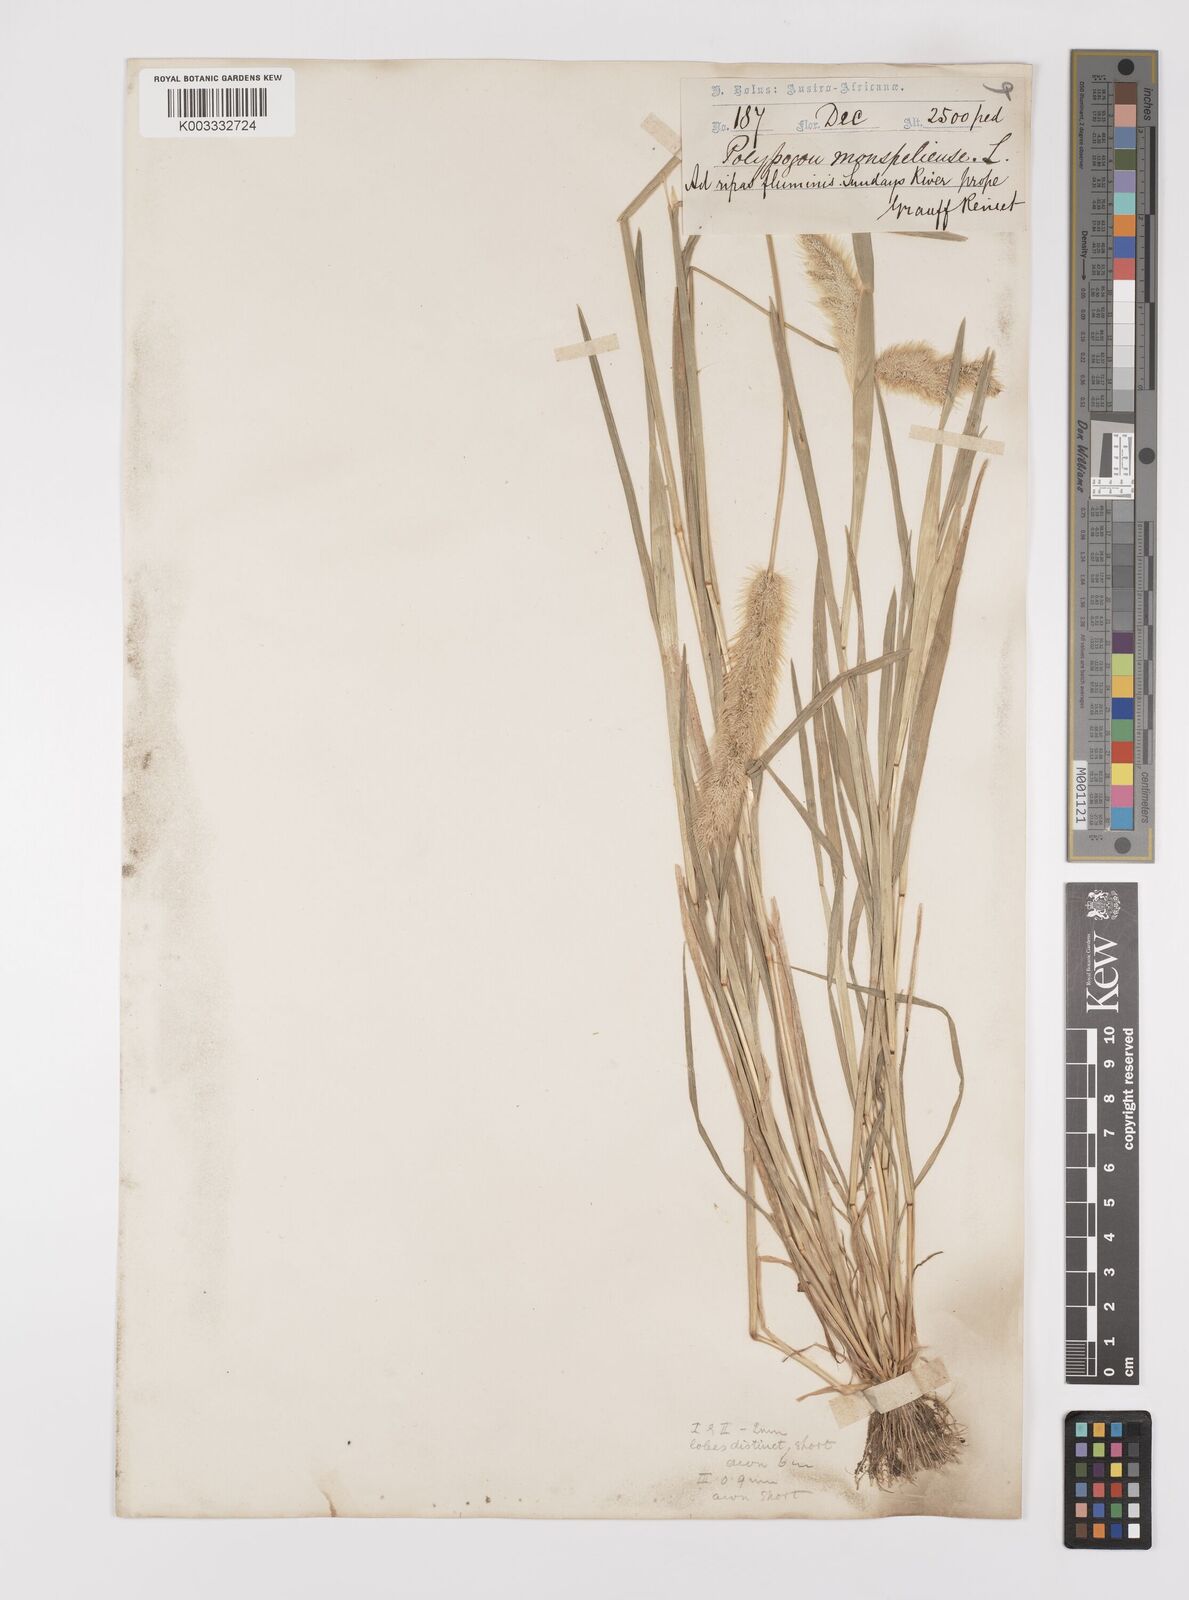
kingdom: Plantae
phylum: Tracheophyta
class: Liliopsida
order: Poales
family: Poaceae
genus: Polypogon
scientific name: Polypogon monspeliensis
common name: Annual rabbitsfoot grass
